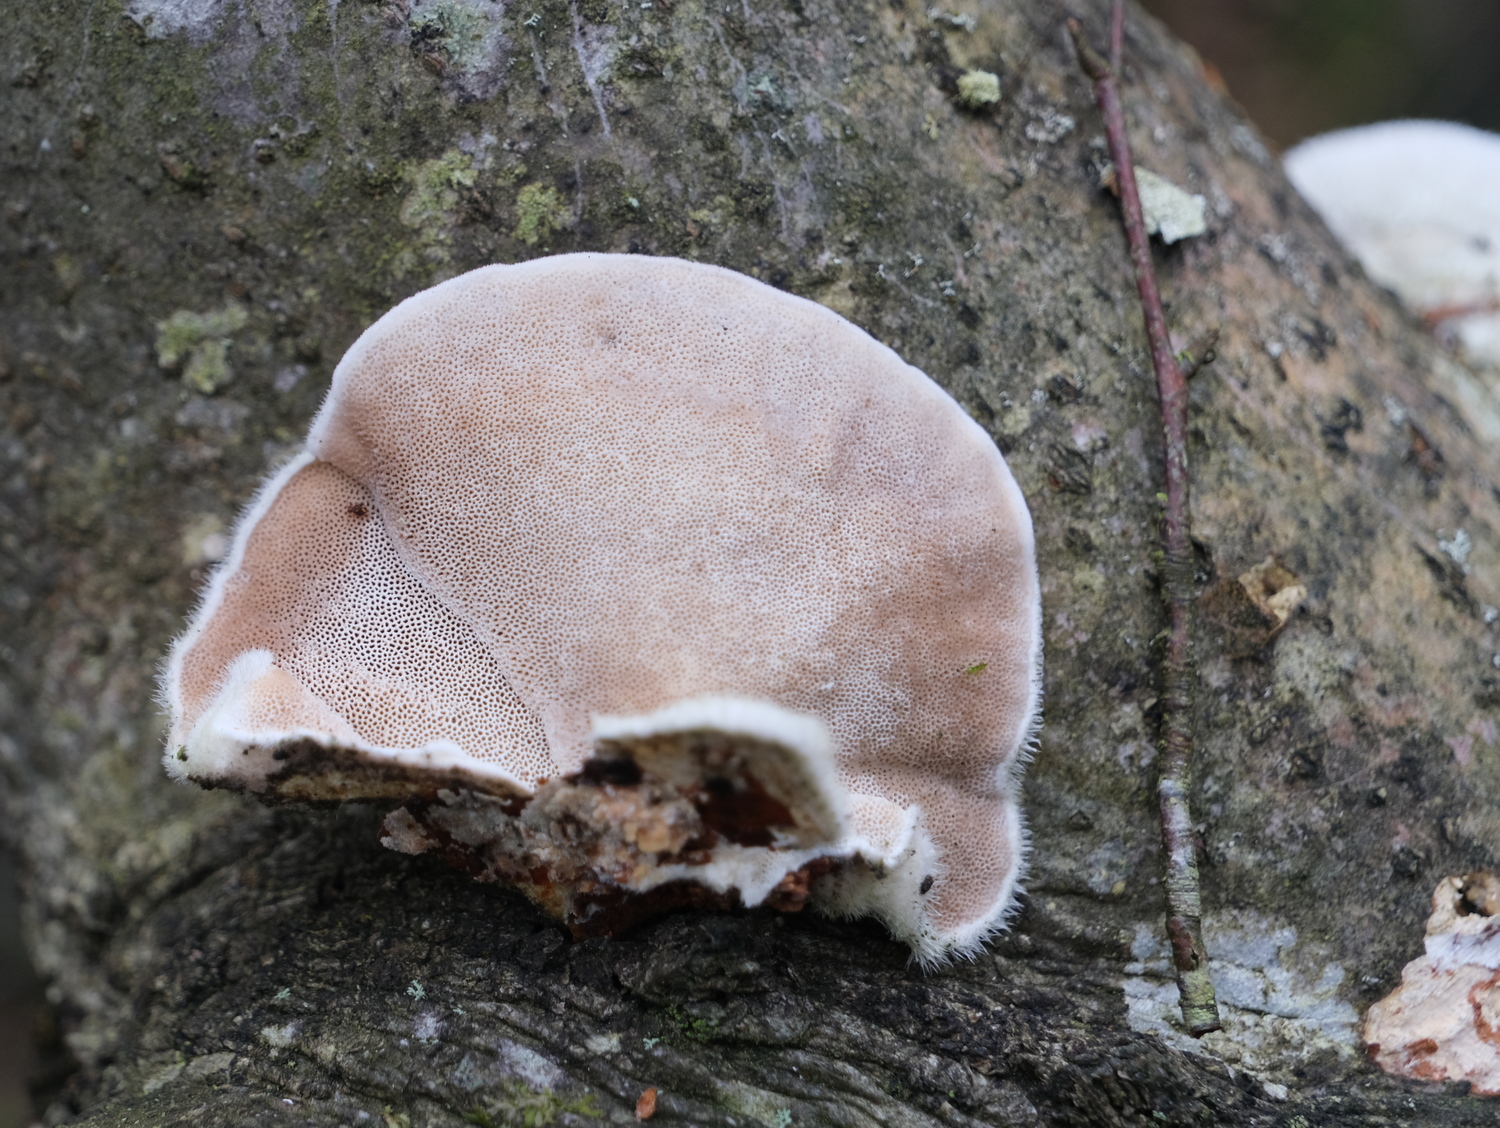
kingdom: Fungi
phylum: Basidiomycota
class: Agaricomycetes
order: Polyporales
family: Polyporaceae
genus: Trametes
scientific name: Trametes hirsuta
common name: håret læderporesvamp
